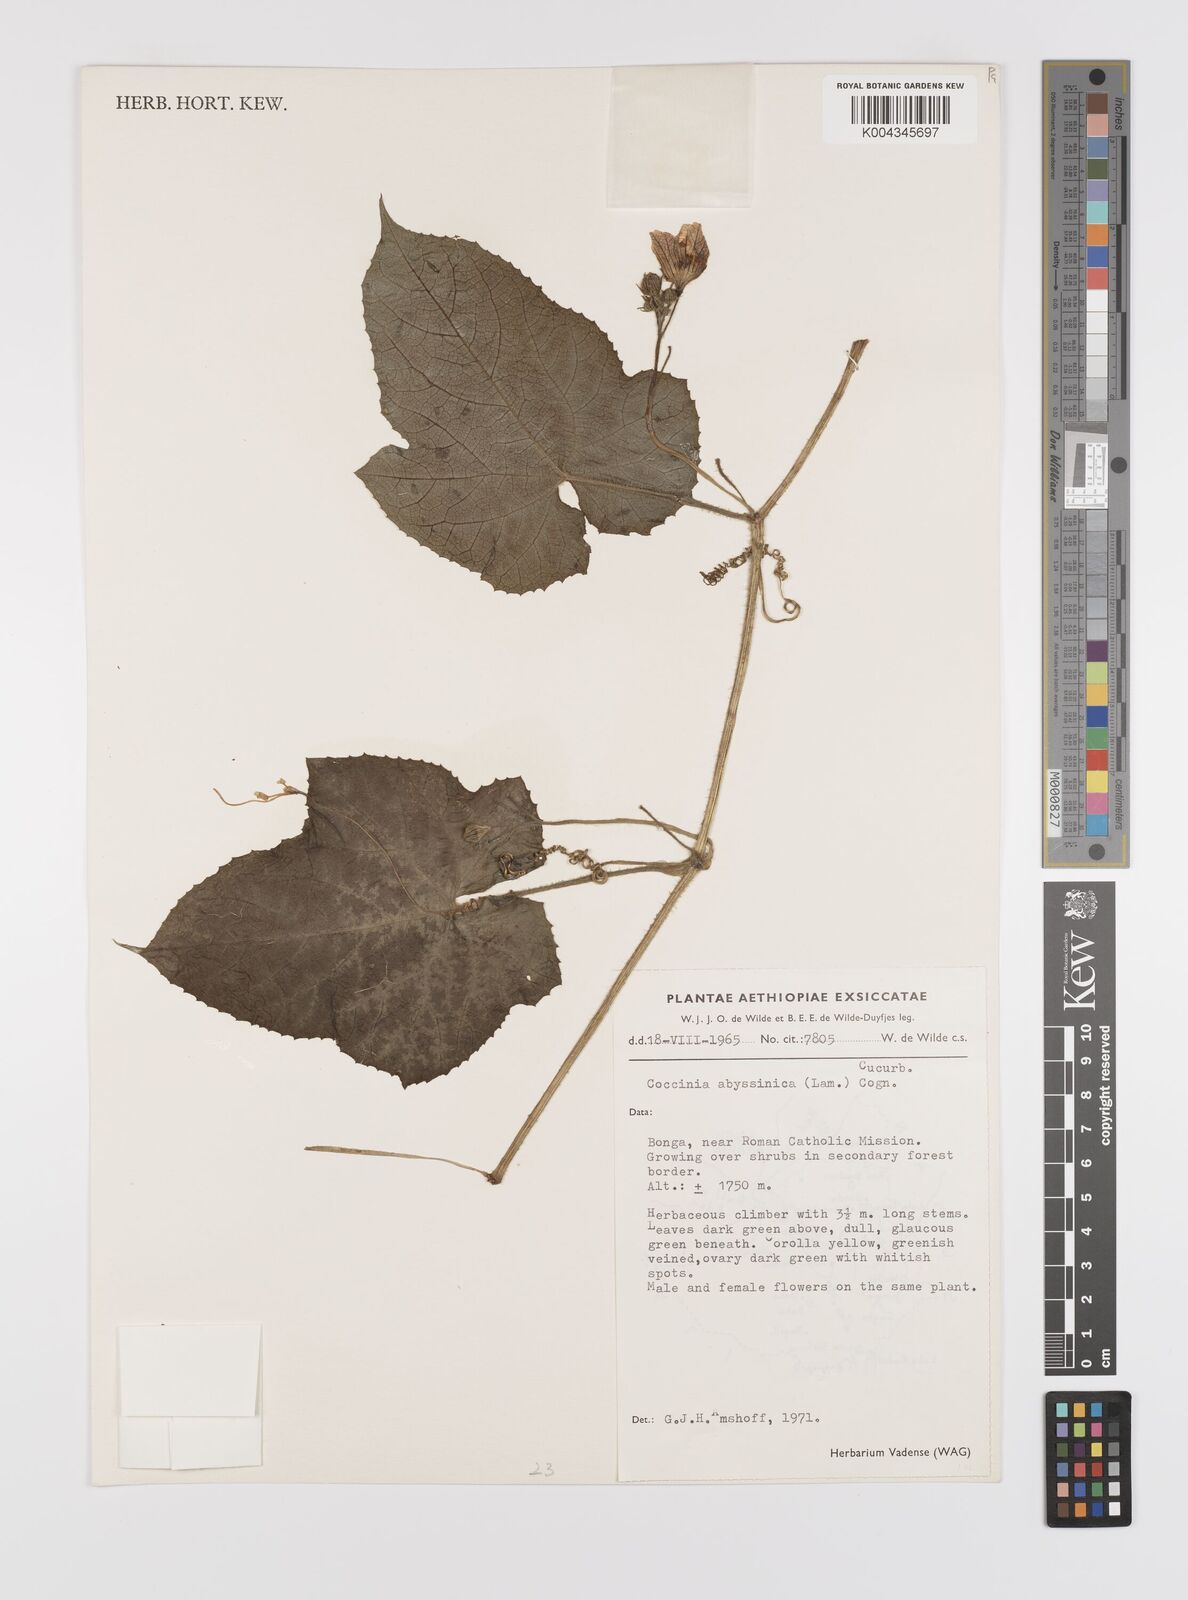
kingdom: Plantae
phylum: Tracheophyta
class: Magnoliopsida
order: Cucurbitales
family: Cucurbitaceae
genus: Coccinia
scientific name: Coccinia abyssinica
